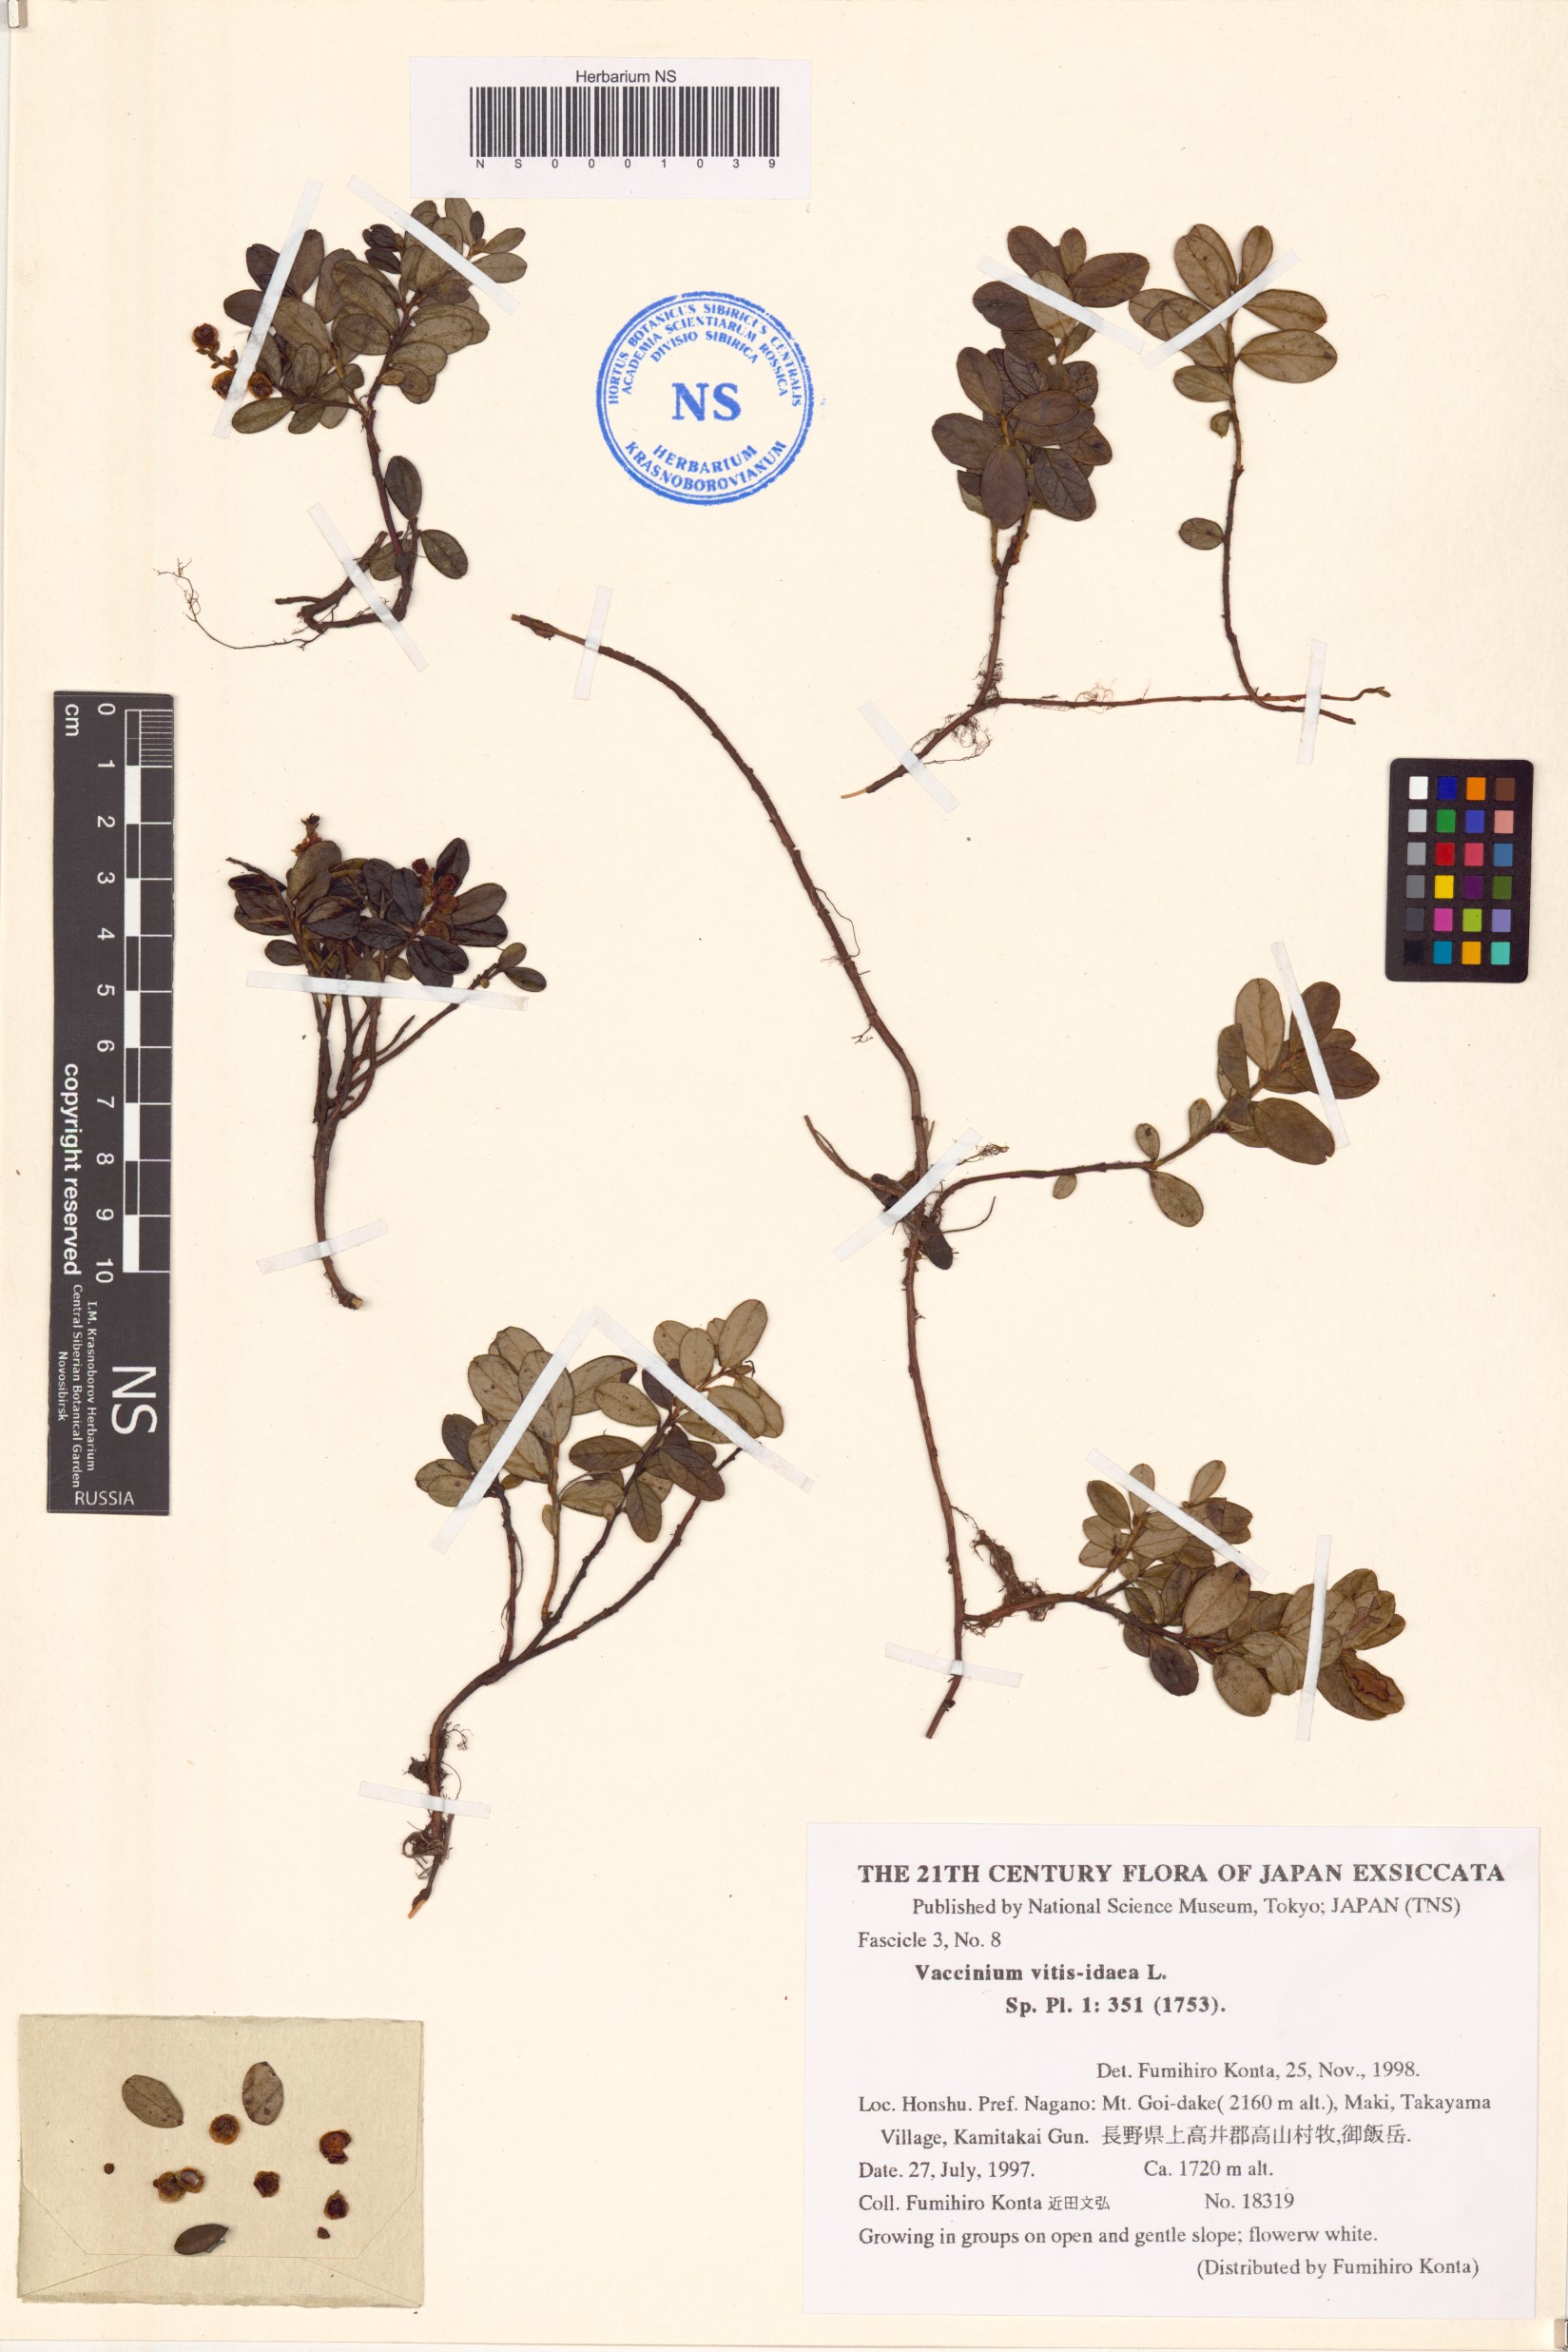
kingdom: Plantae
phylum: Tracheophyta
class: Magnoliopsida
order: Ericales
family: Ericaceae
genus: Vaccinium
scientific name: Vaccinium vitis-idaea
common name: Cowberry
